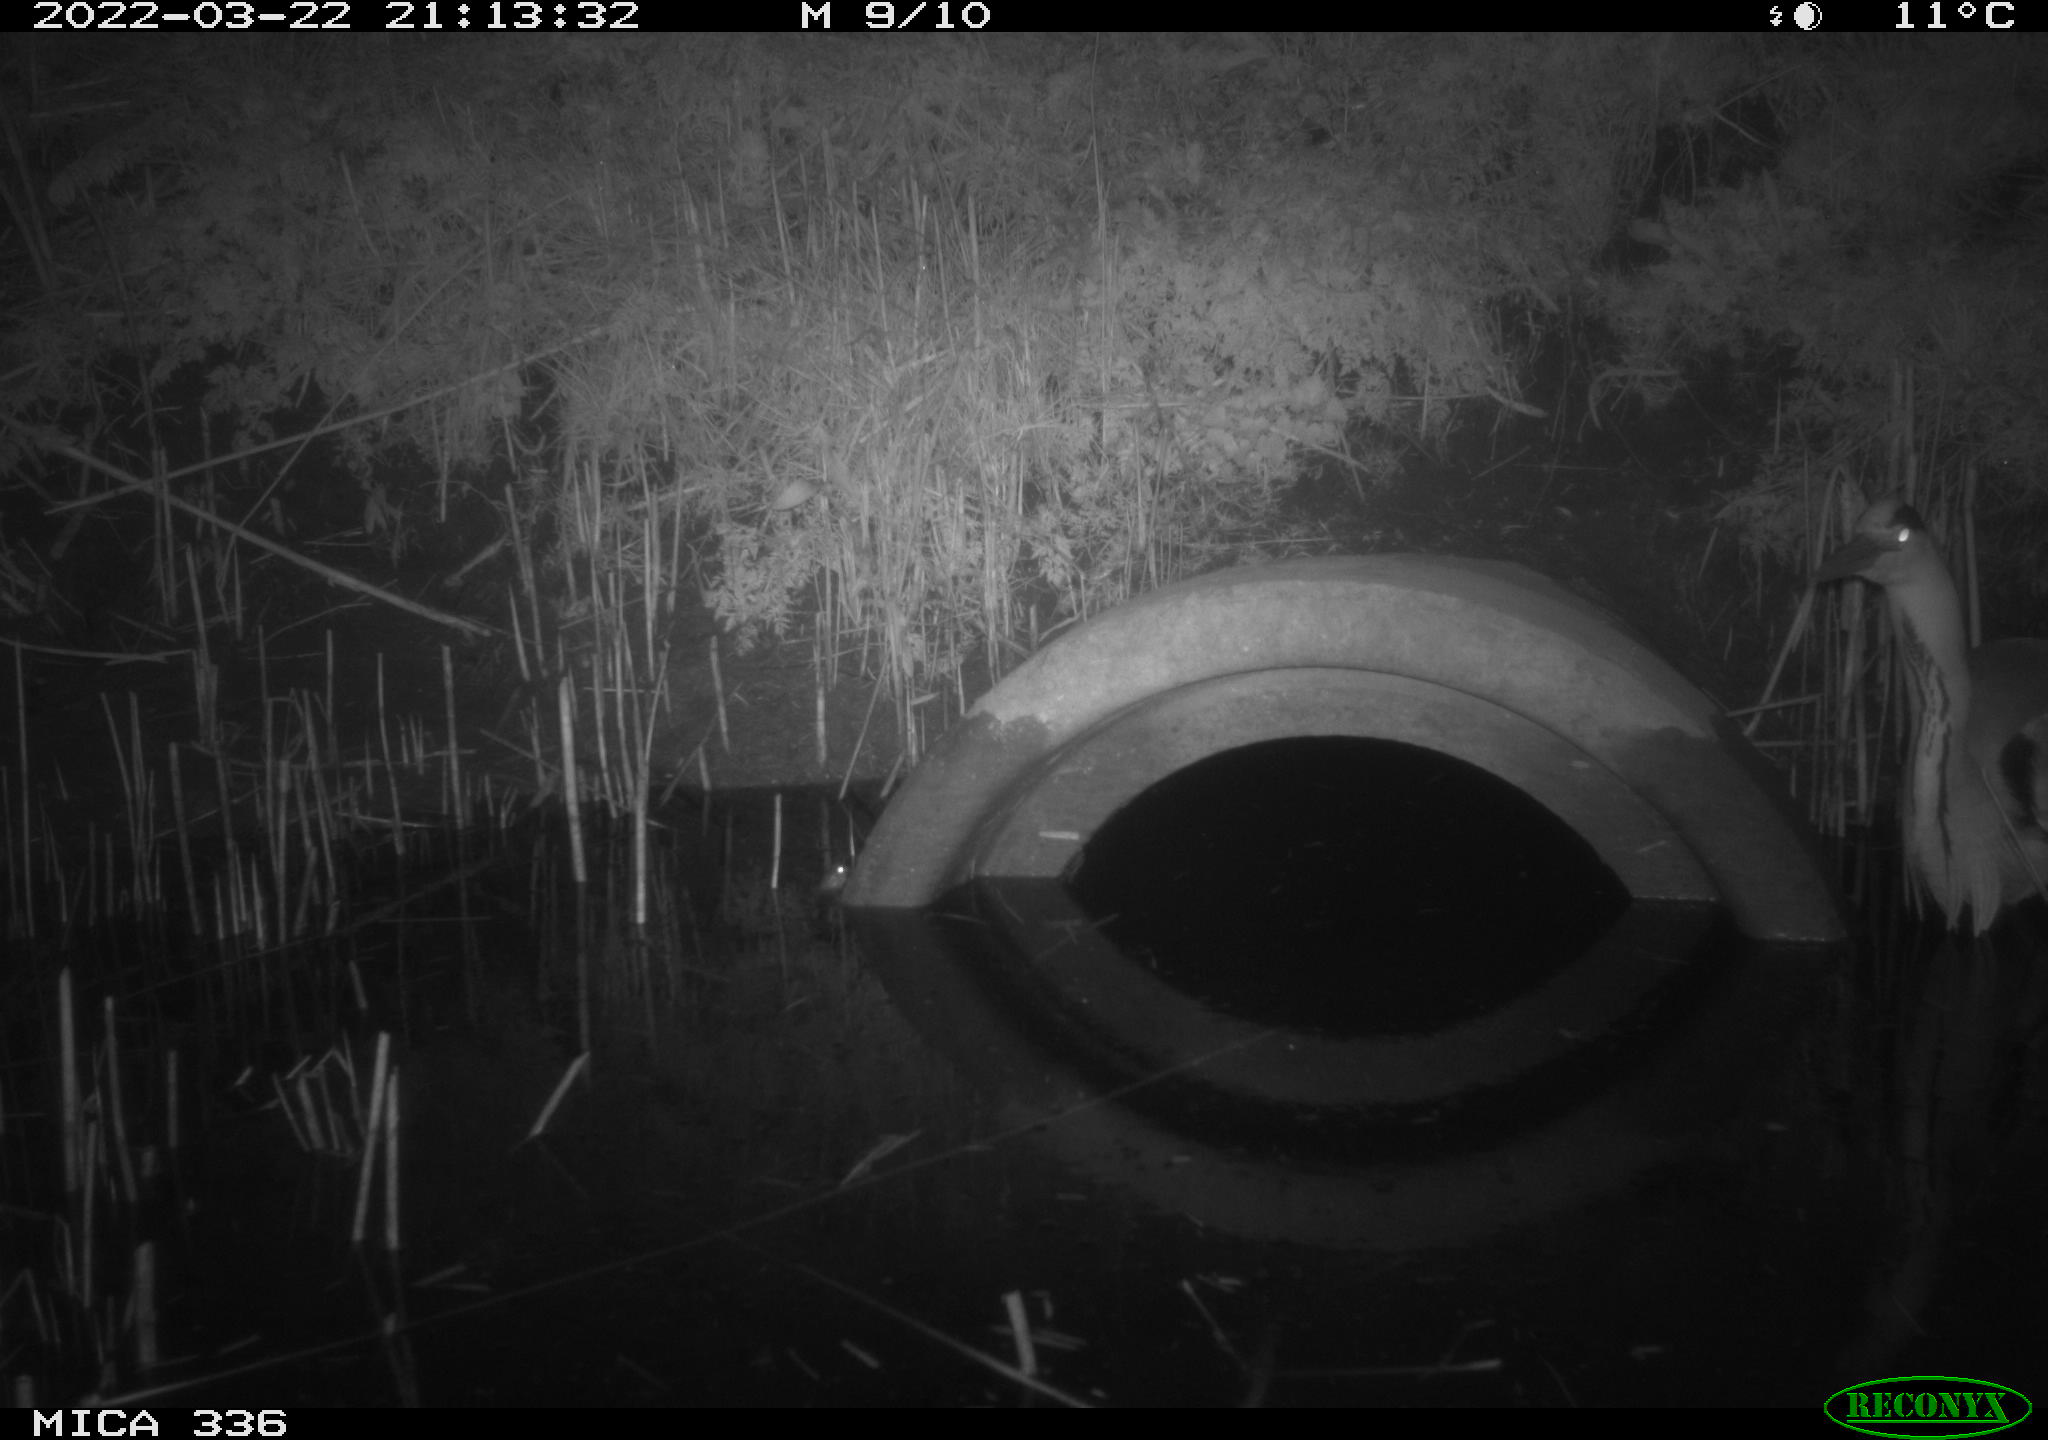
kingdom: Animalia
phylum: Chordata
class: Aves
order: Pelecaniformes
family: Ardeidae
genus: Ardea
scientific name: Ardea cinerea
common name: Grey heron
